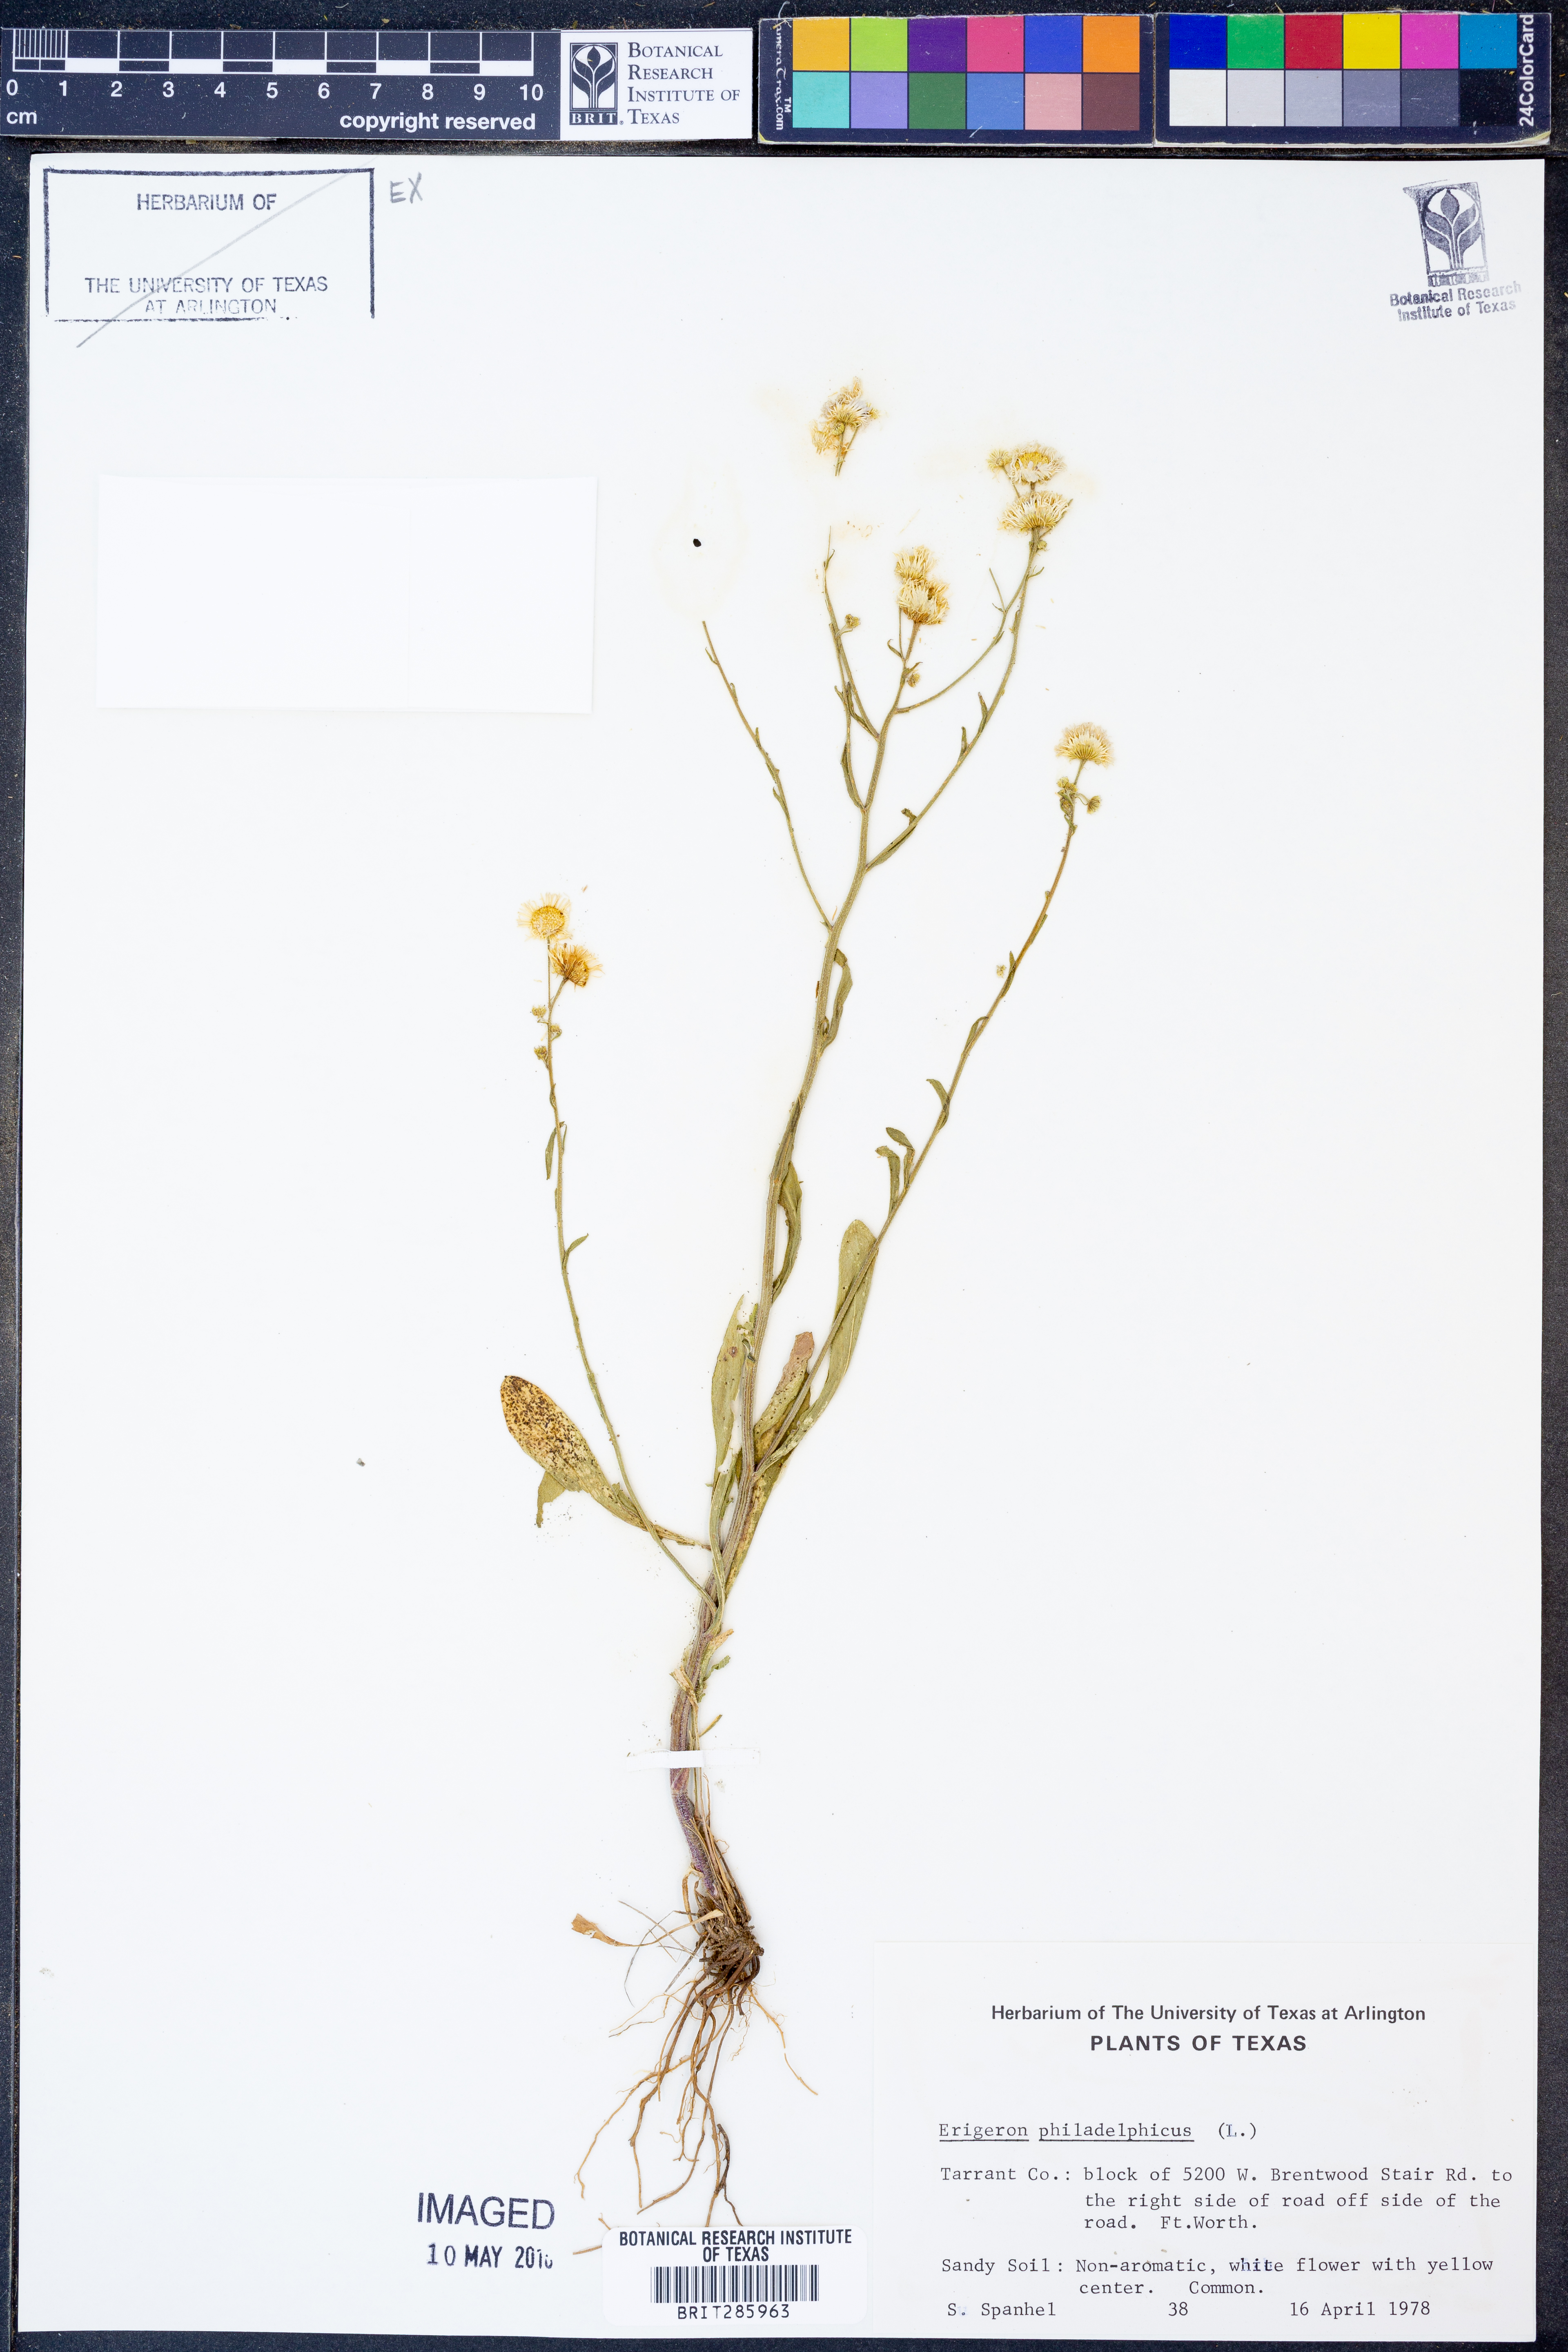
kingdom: Plantae
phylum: Tracheophyta
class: Magnoliopsida
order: Asterales
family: Asteraceae
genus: Erigeron
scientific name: Erigeron philadelphicus
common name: Robin's-plantain
